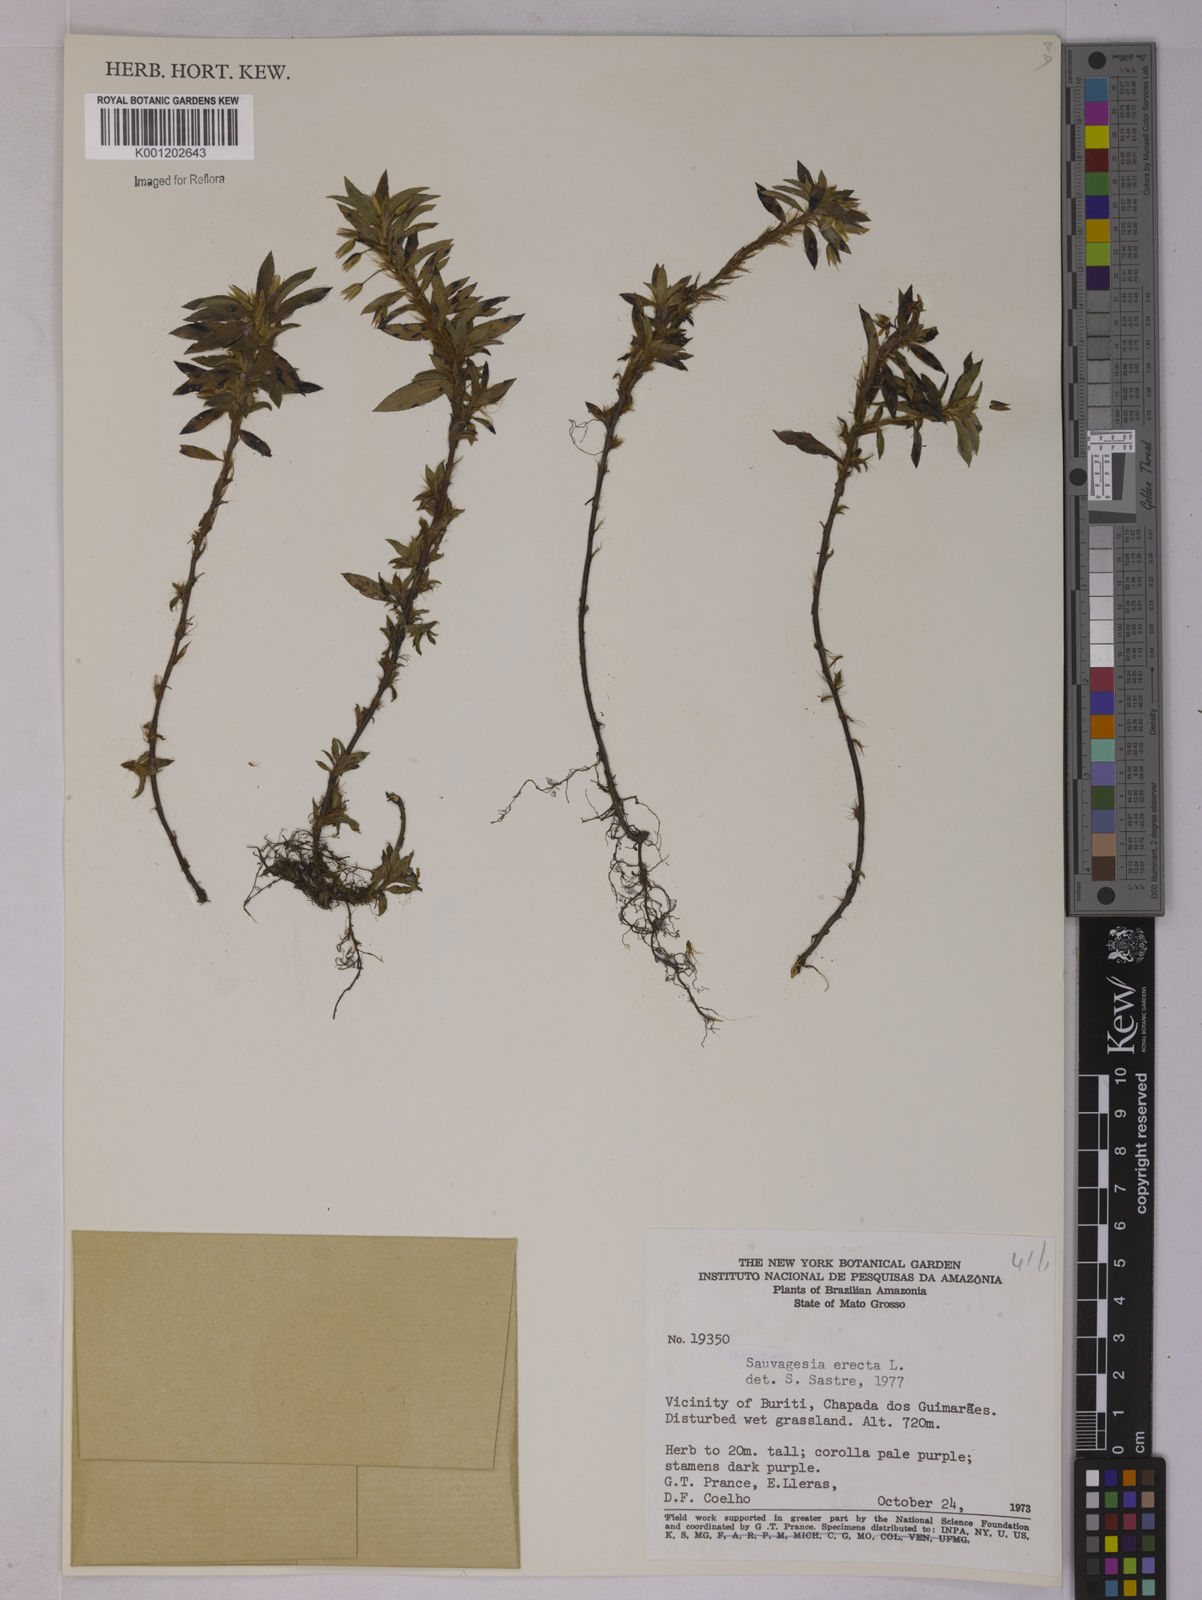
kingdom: Plantae
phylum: Tracheophyta
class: Magnoliopsida
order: Malpighiales
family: Ochnaceae
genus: Sauvagesia
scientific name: Sauvagesia erecta
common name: Creole tea
